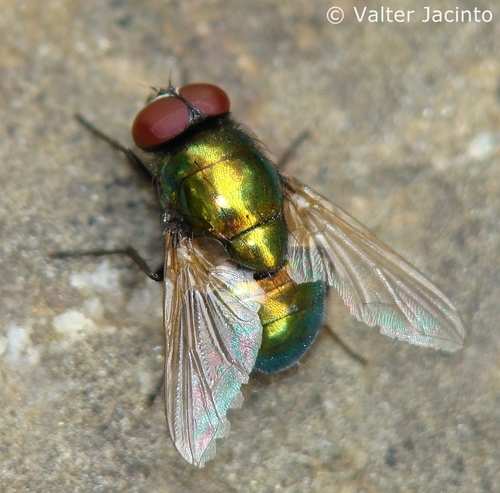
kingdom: Animalia
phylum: Arthropoda
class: Insecta
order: Diptera
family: Muscidae
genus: Pyrellia
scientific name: Pyrellia vivida
